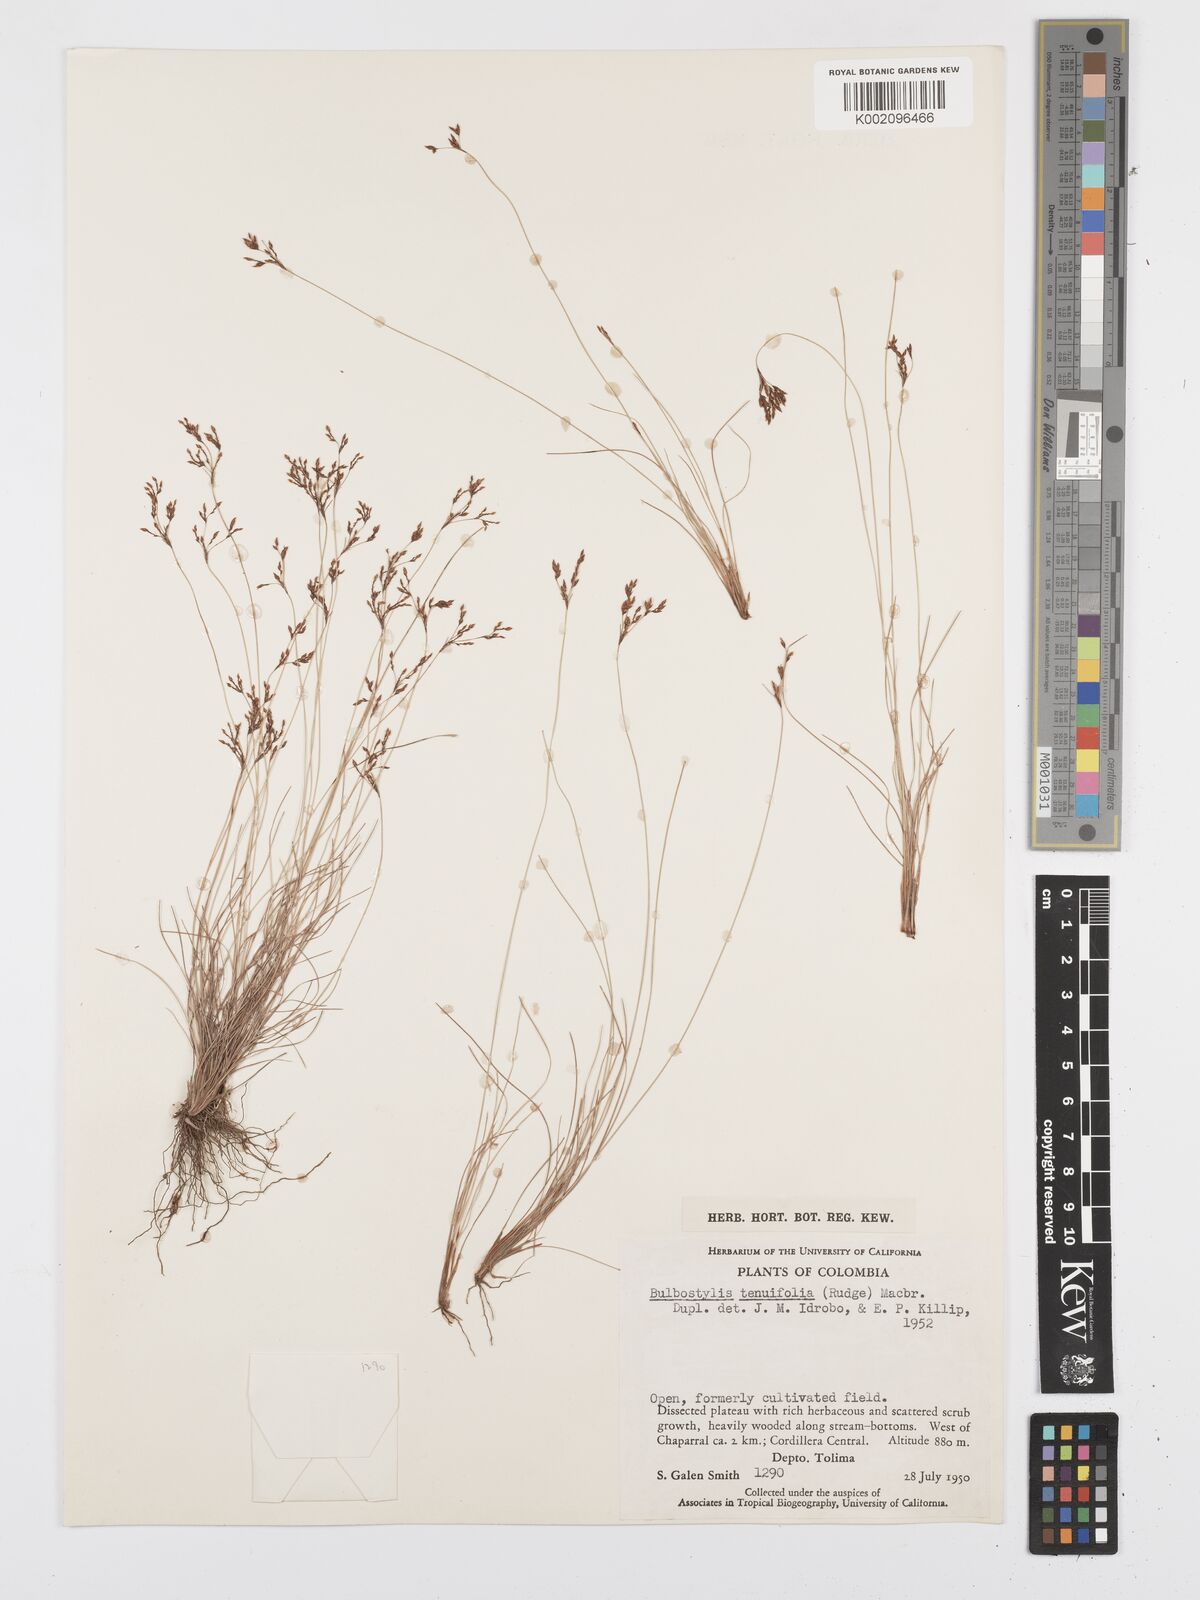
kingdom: Plantae
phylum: Tracheophyta
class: Liliopsida
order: Poales
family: Cyperaceae
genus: Bulbostylis
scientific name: Bulbostylis tenuifolia
